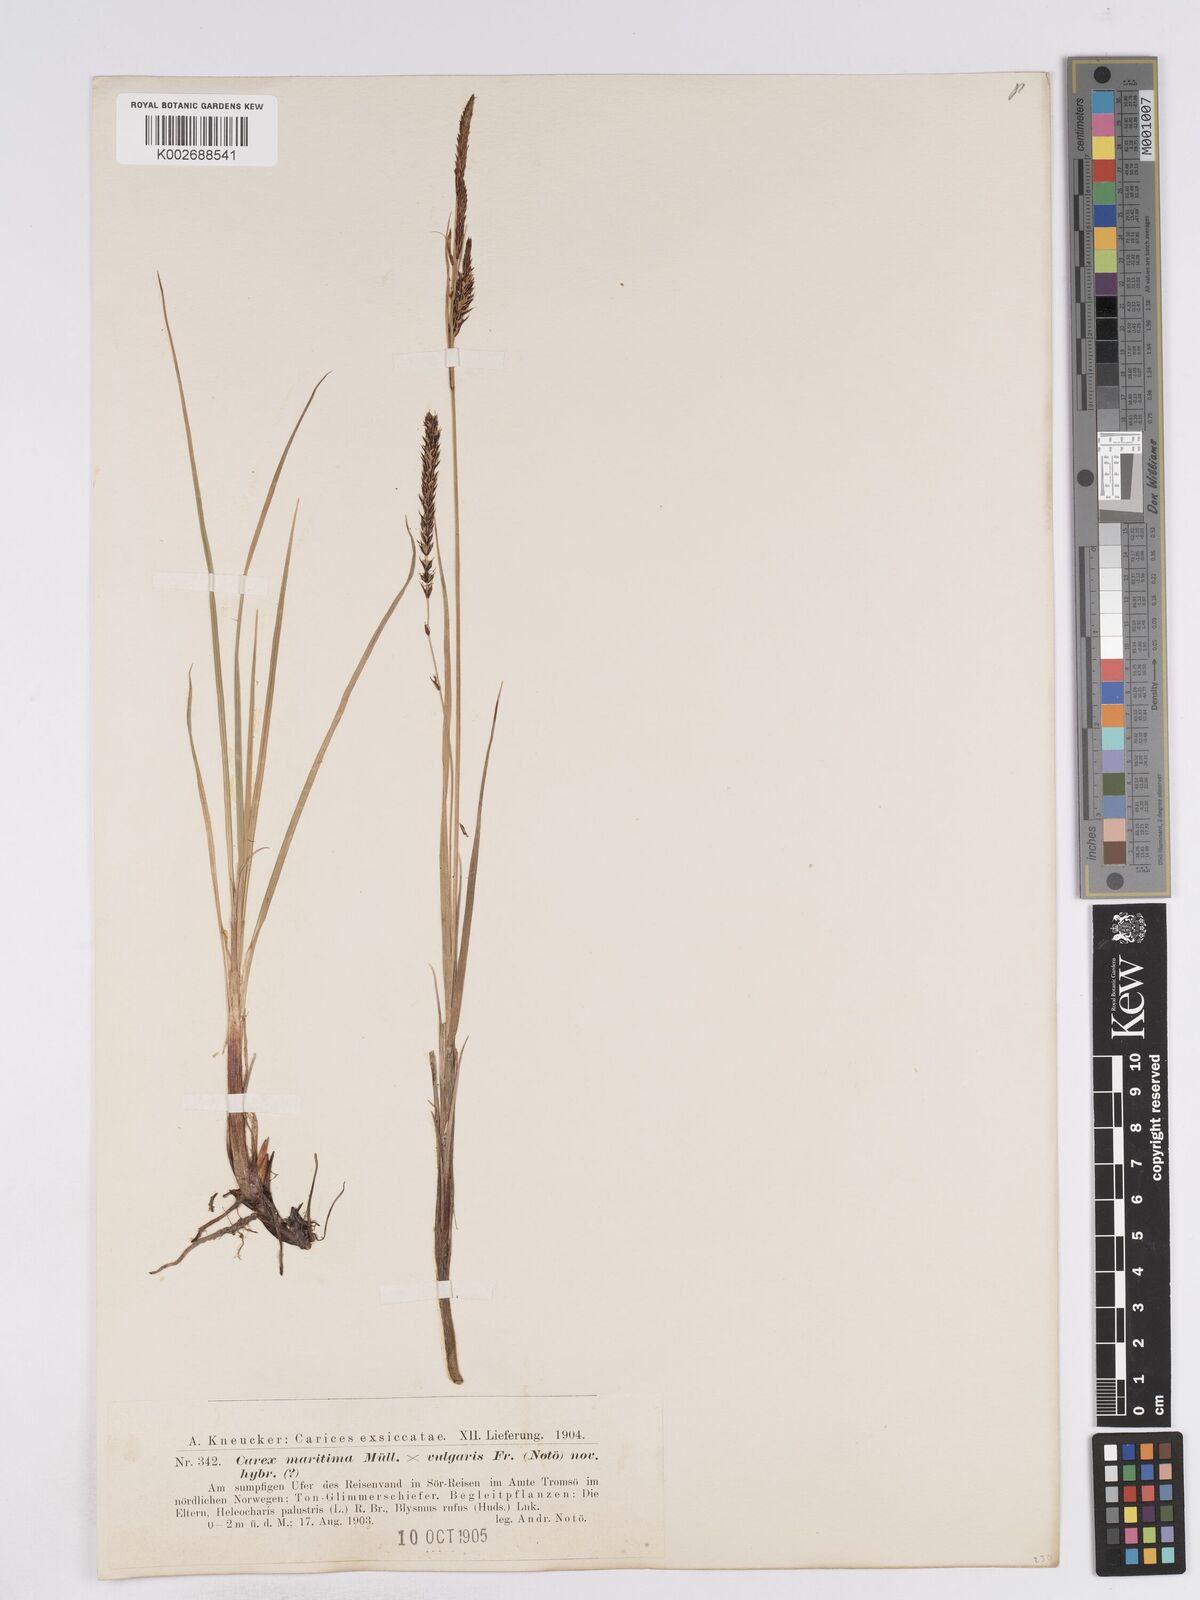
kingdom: Plantae
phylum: Tracheophyta
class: Liliopsida
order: Poales
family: Cyperaceae
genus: Carex
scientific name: Carex recta
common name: Estuarine sedge
